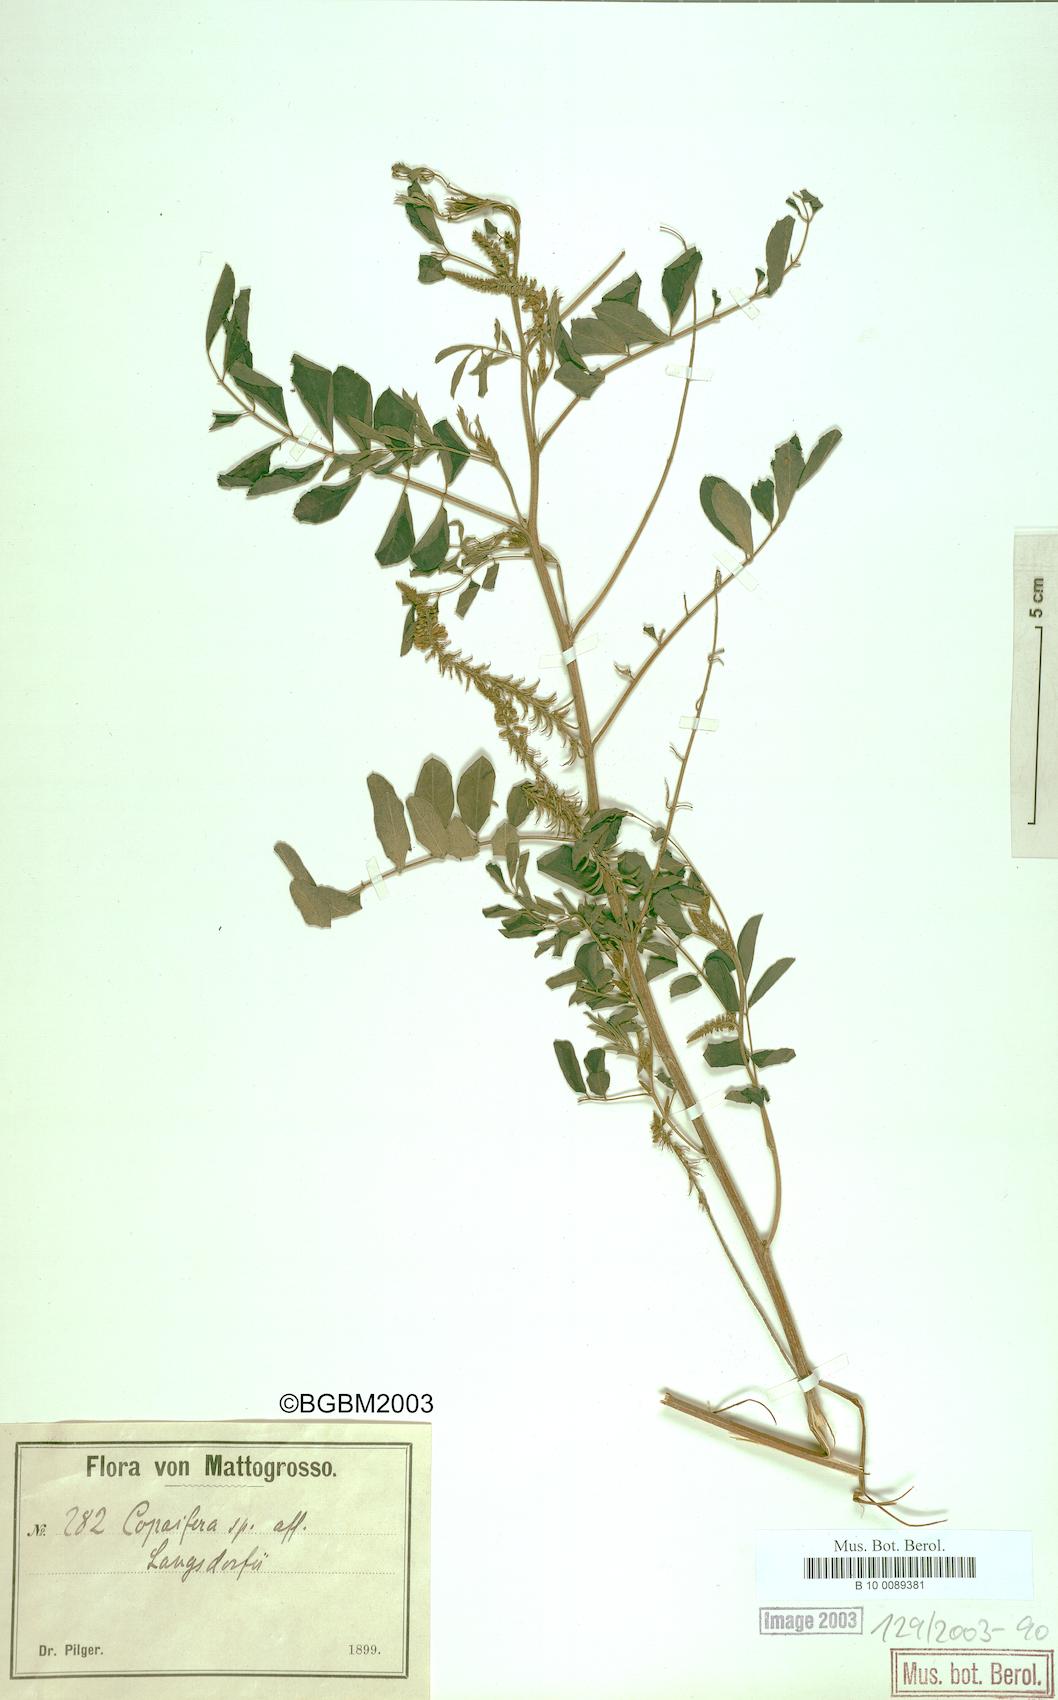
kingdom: Plantae
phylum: Tracheophyta
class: Magnoliopsida
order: Fabales
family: Fabaceae
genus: Indigofera
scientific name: Indigofera
